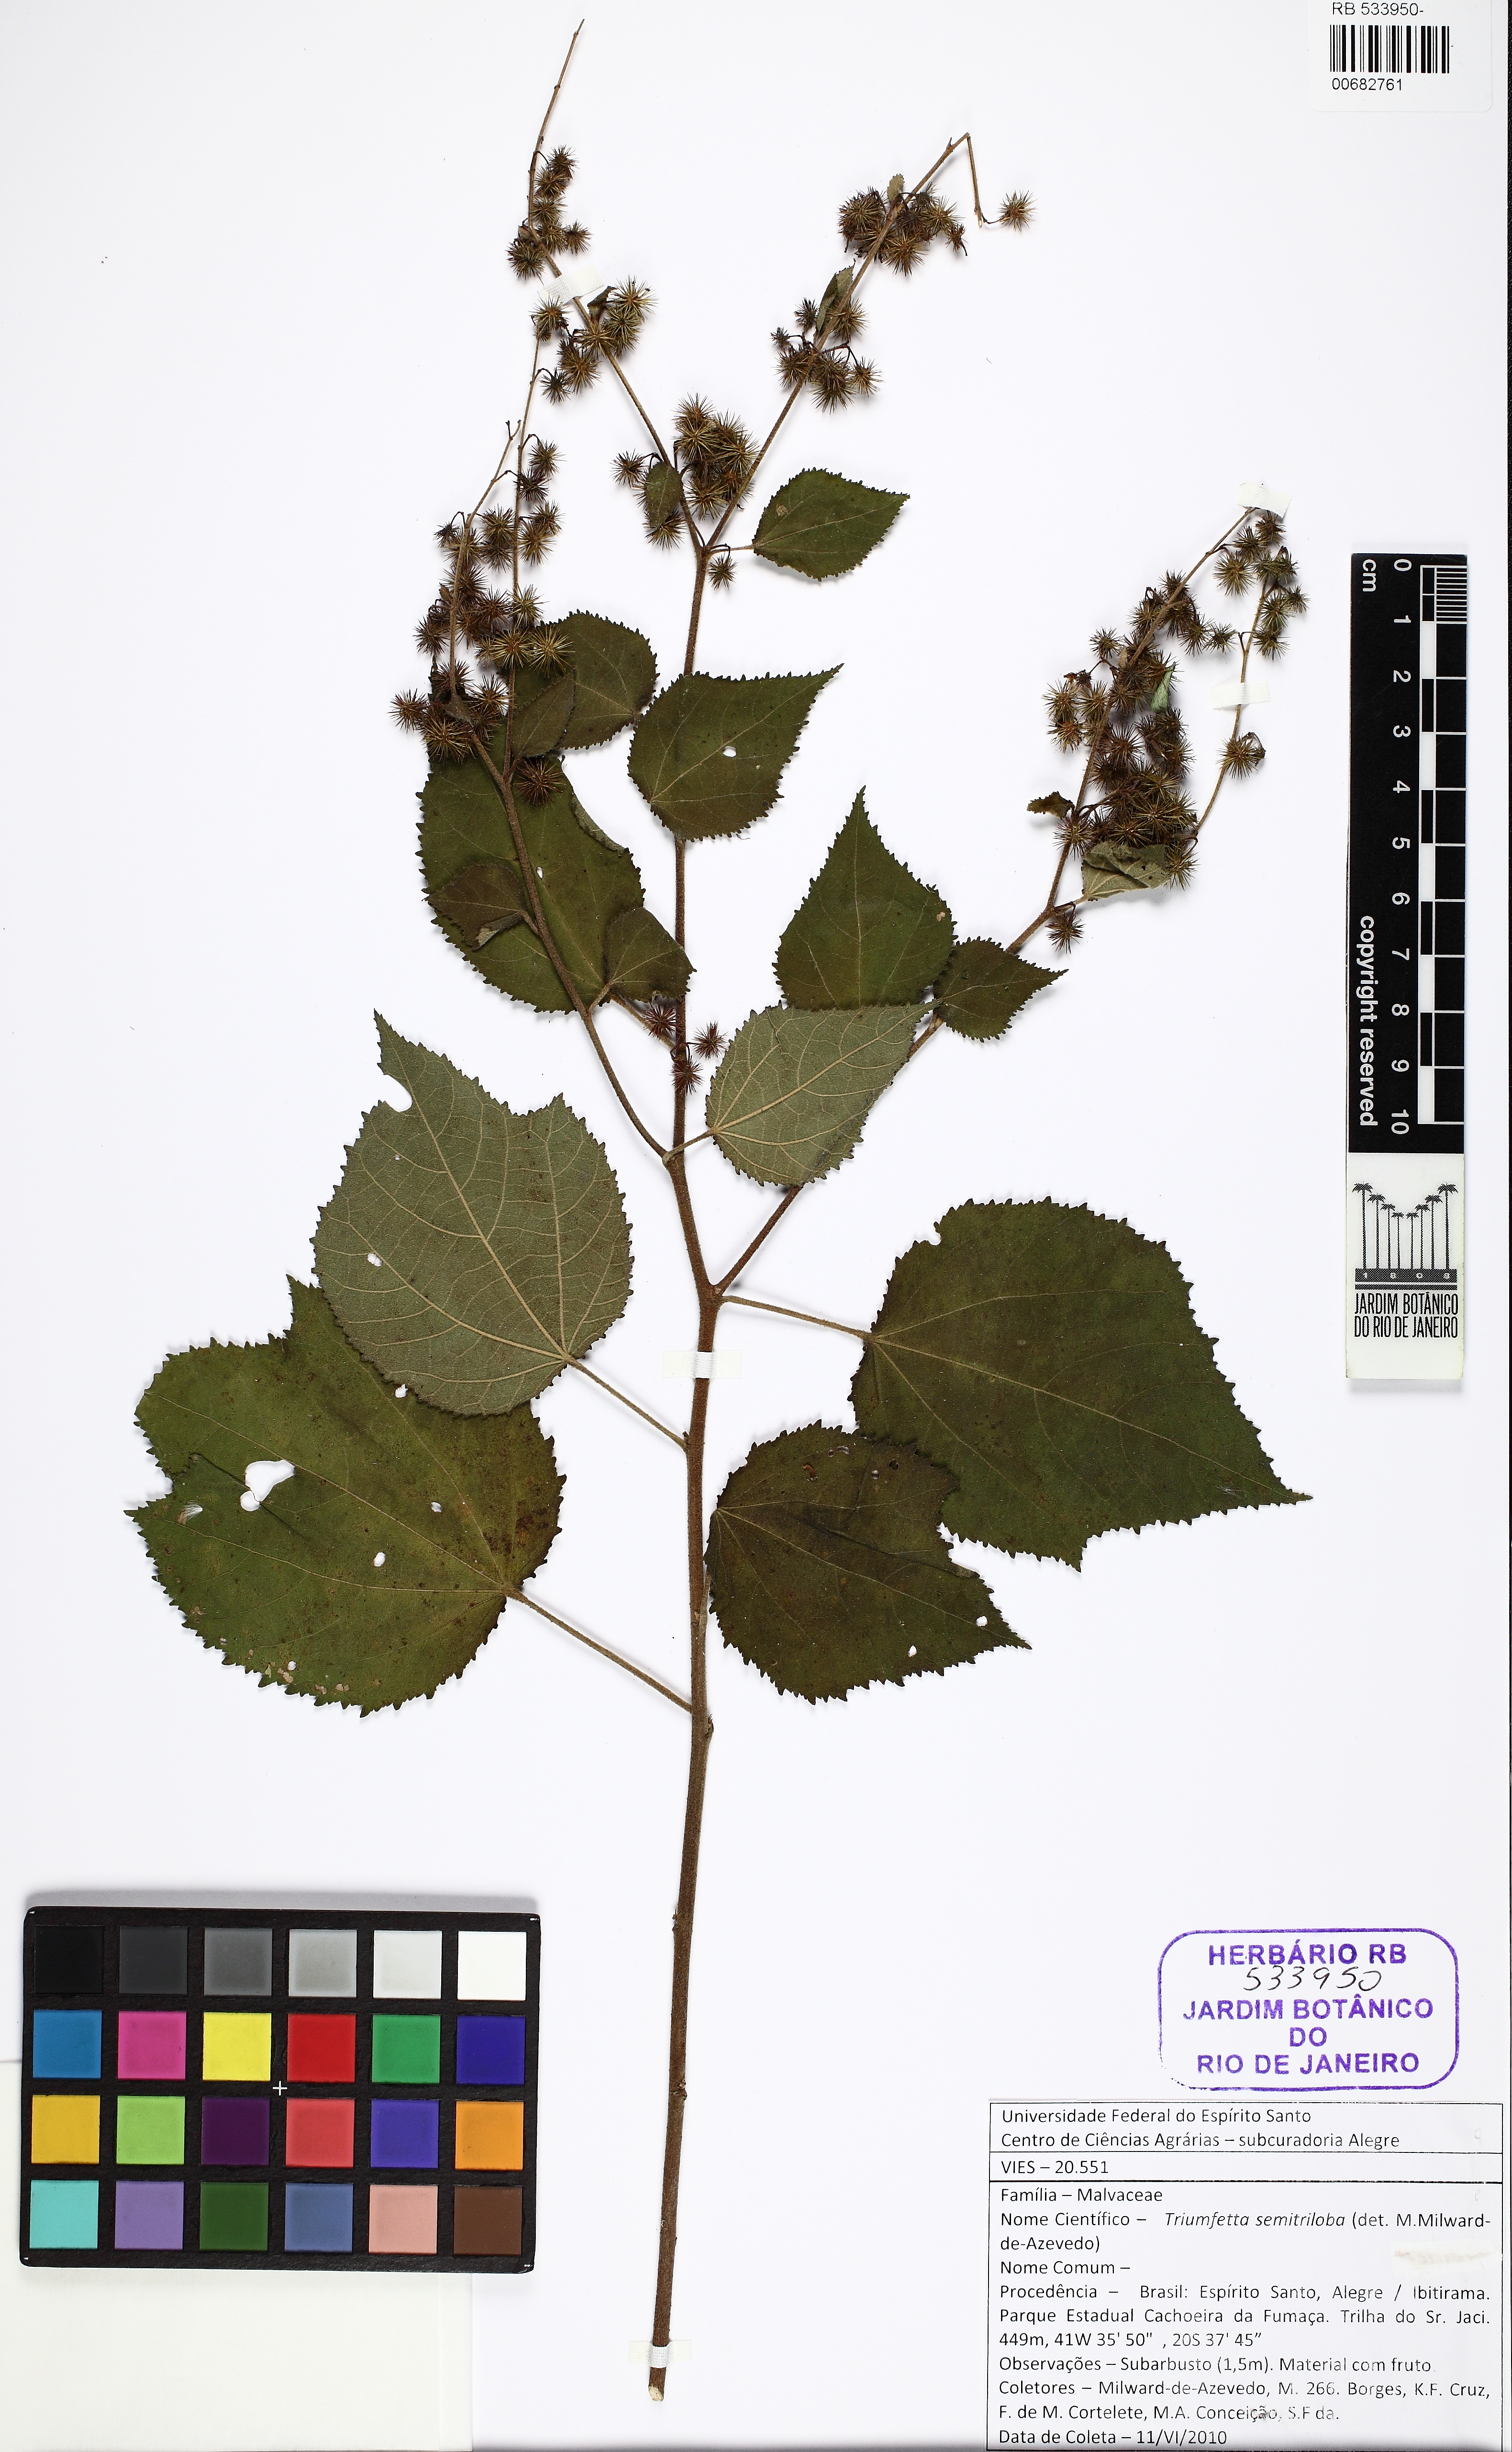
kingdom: Plantae
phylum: Tracheophyta
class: Magnoliopsida
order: Malvales
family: Malvaceae
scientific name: Malvaceae
